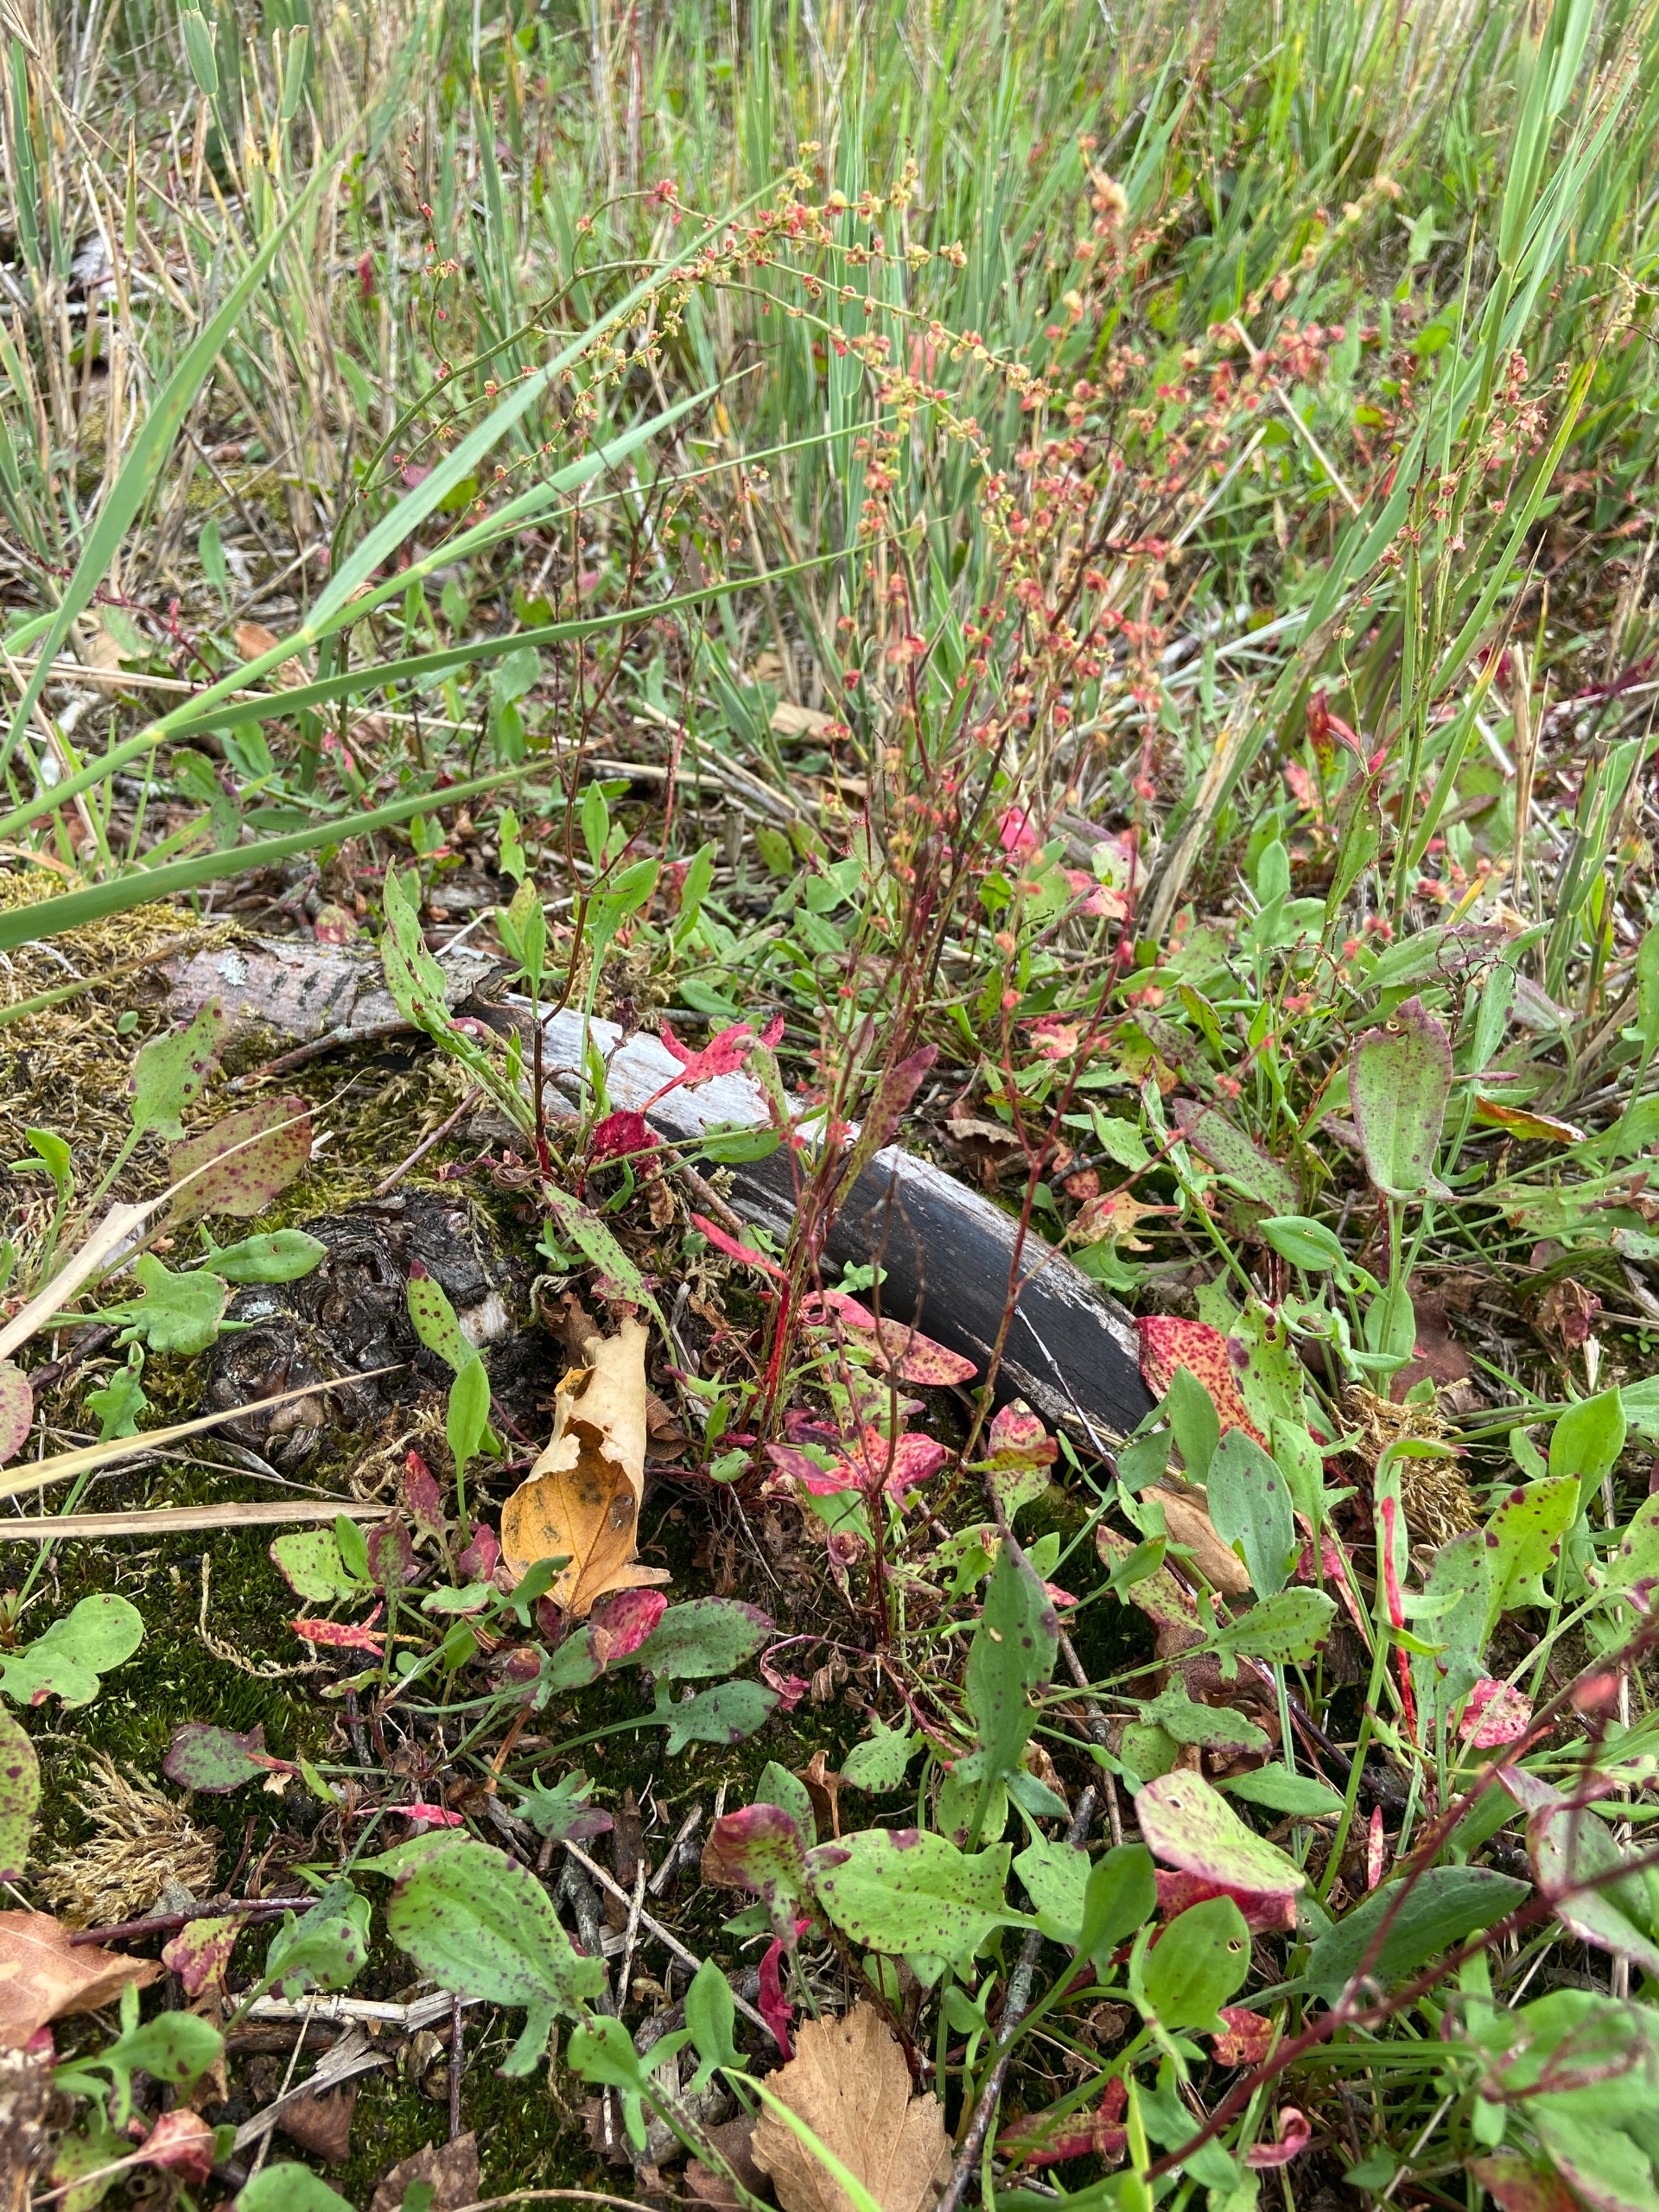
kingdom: Plantae
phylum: Tracheophyta
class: Magnoliopsida
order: Caryophyllales
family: Polygonaceae
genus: Rumex
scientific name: Rumex acetosella
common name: Rødknæ
